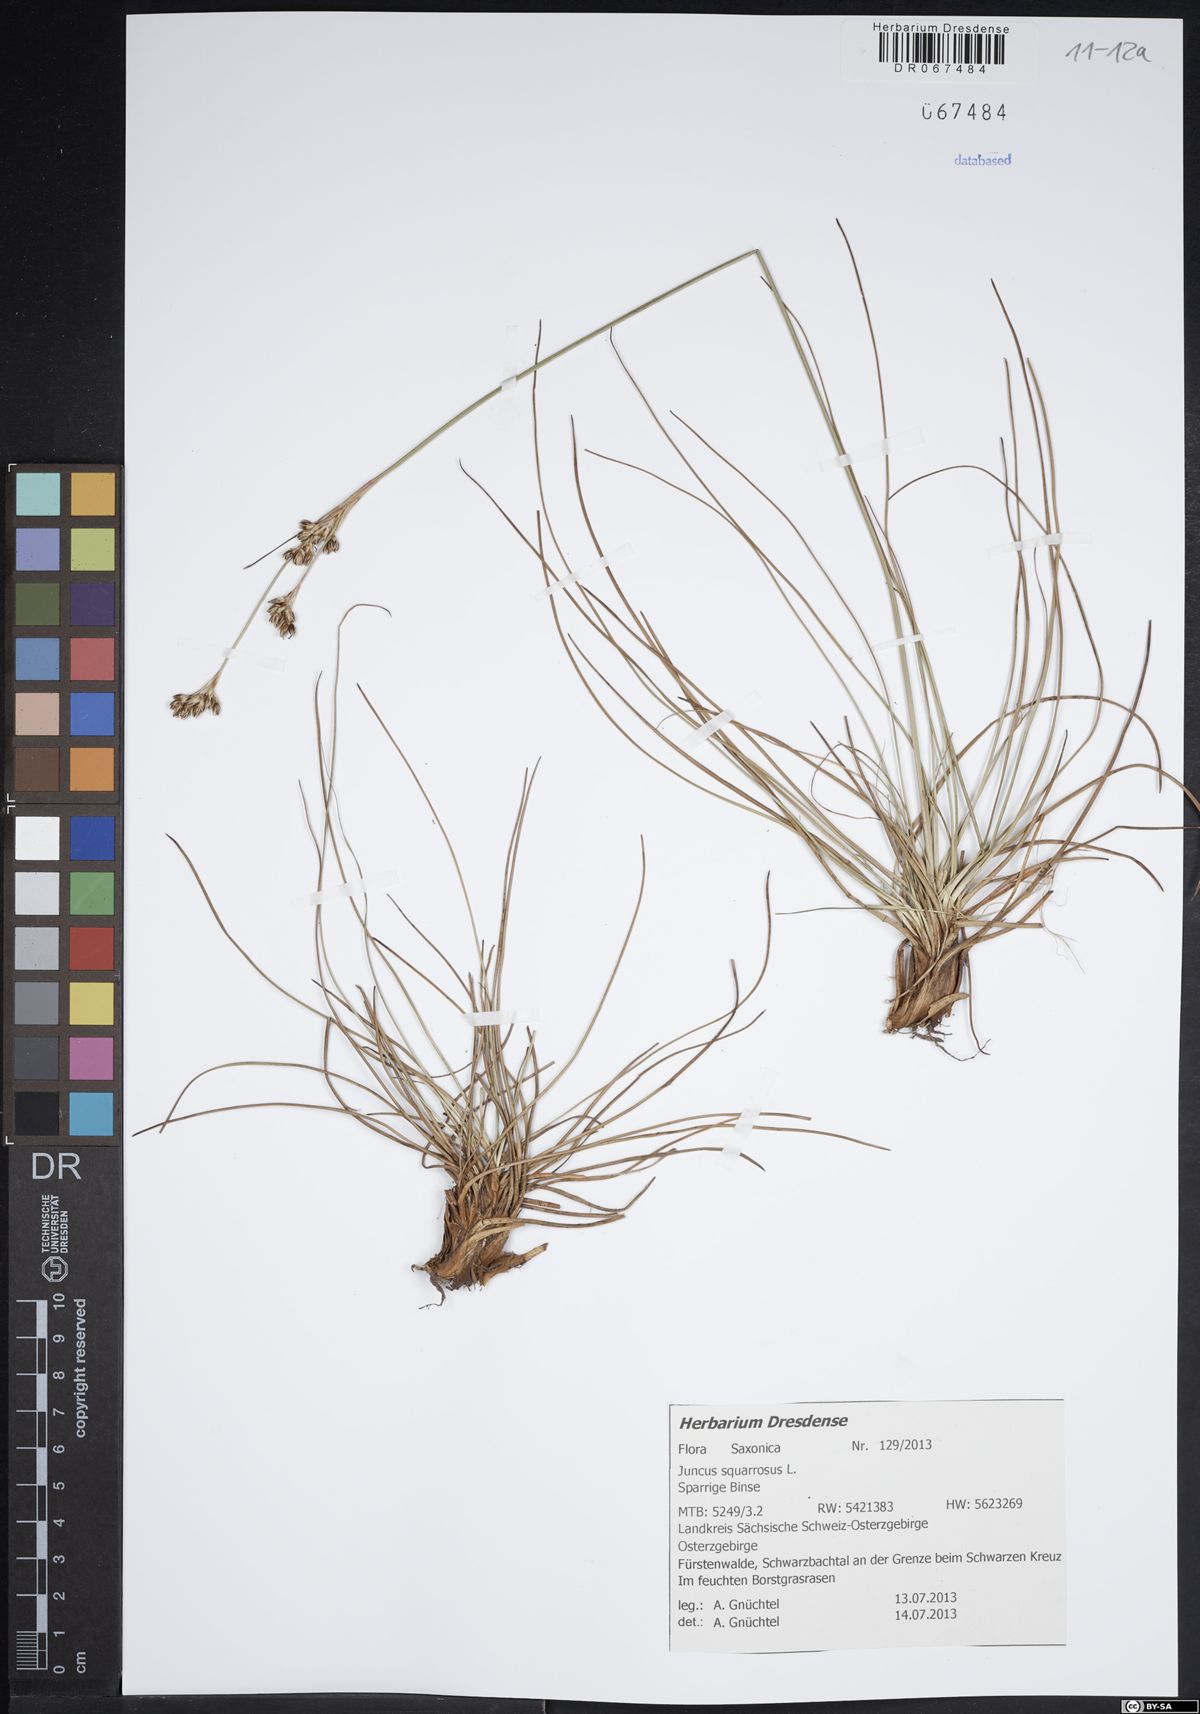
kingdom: Plantae
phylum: Tracheophyta
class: Liliopsida
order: Poales
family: Juncaceae
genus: Juncus
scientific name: Juncus squarrosus
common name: Heath rush
